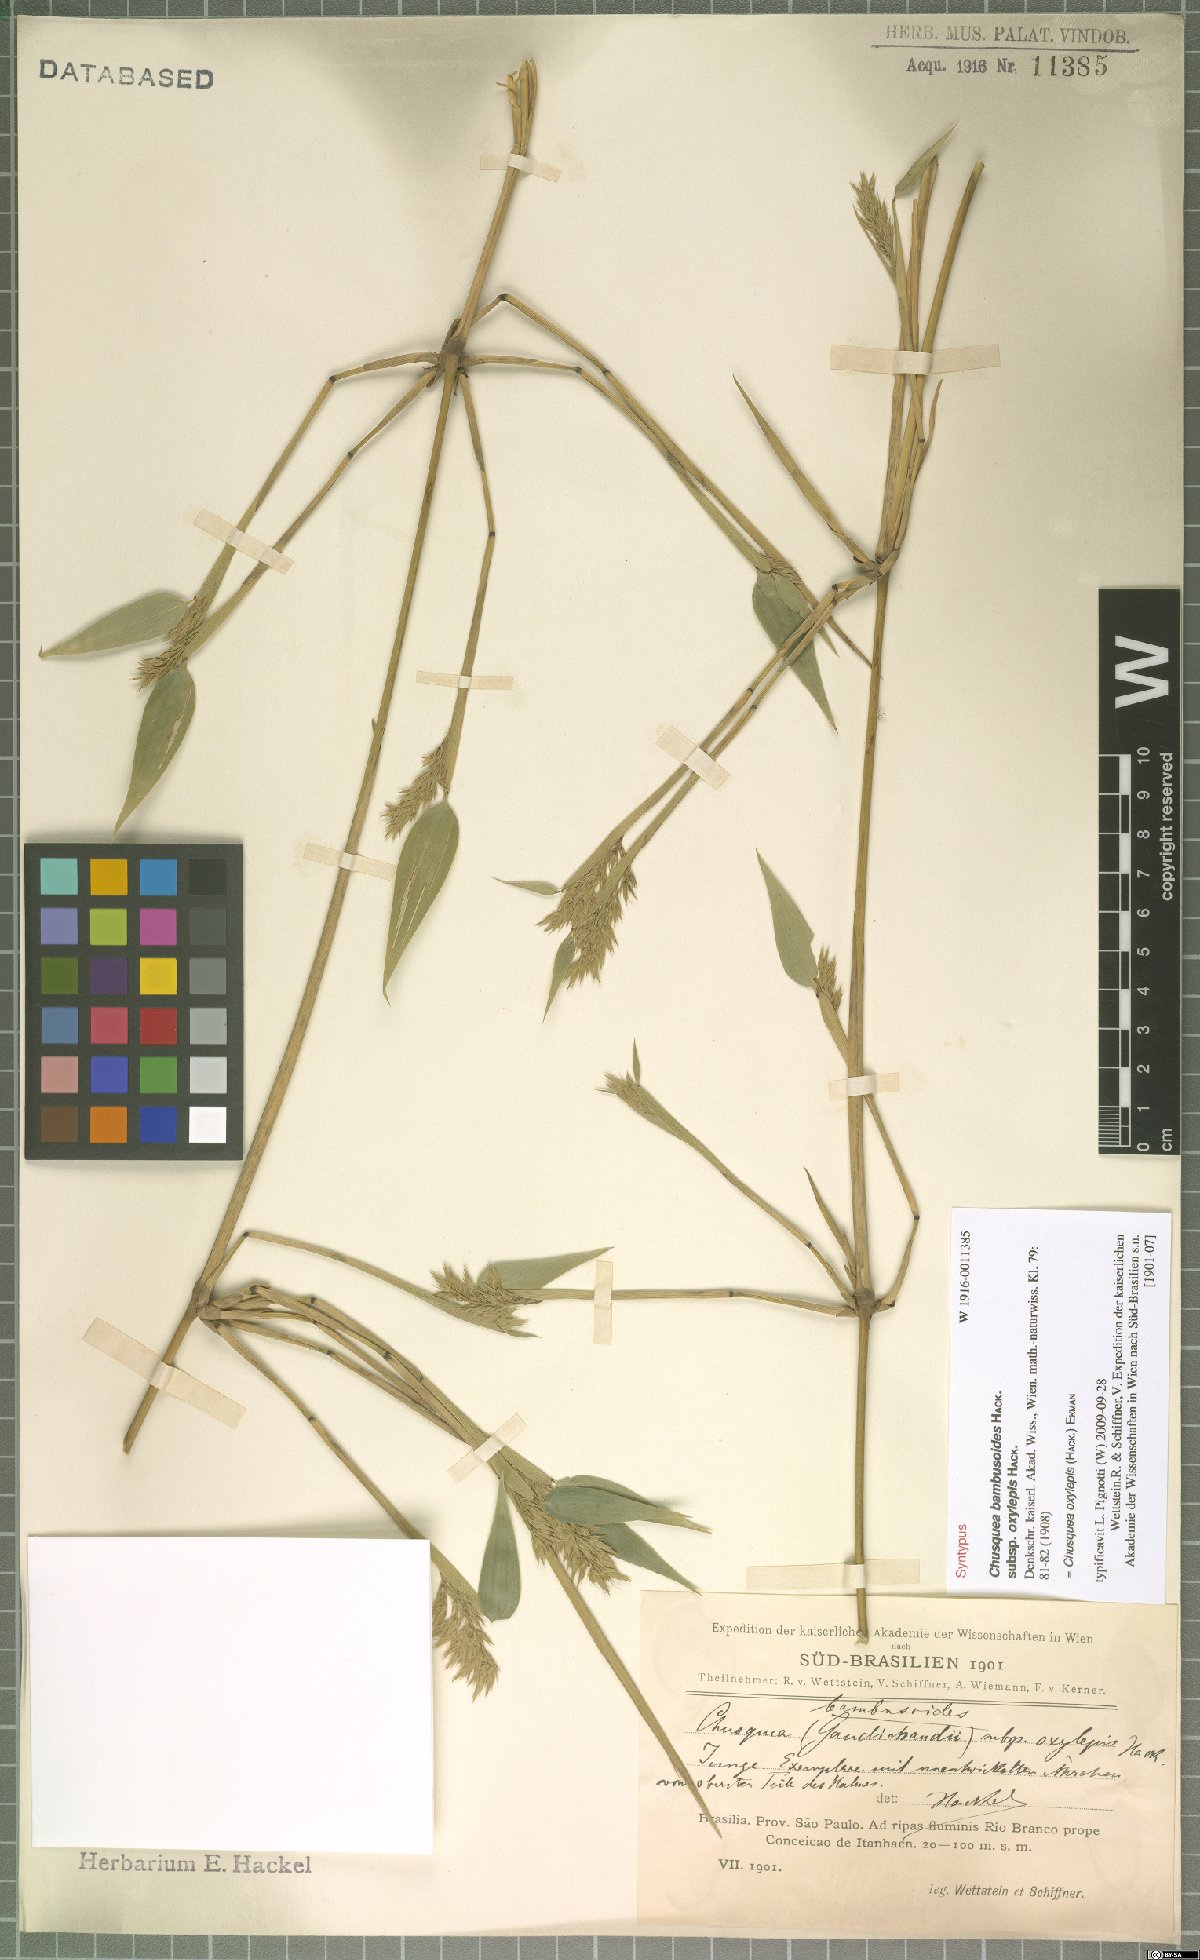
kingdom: Plantae
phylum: Tracheophyta
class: Liliopsida
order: Poales
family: Poaceae
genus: Chusquea
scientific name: Chusquea oxylepis
